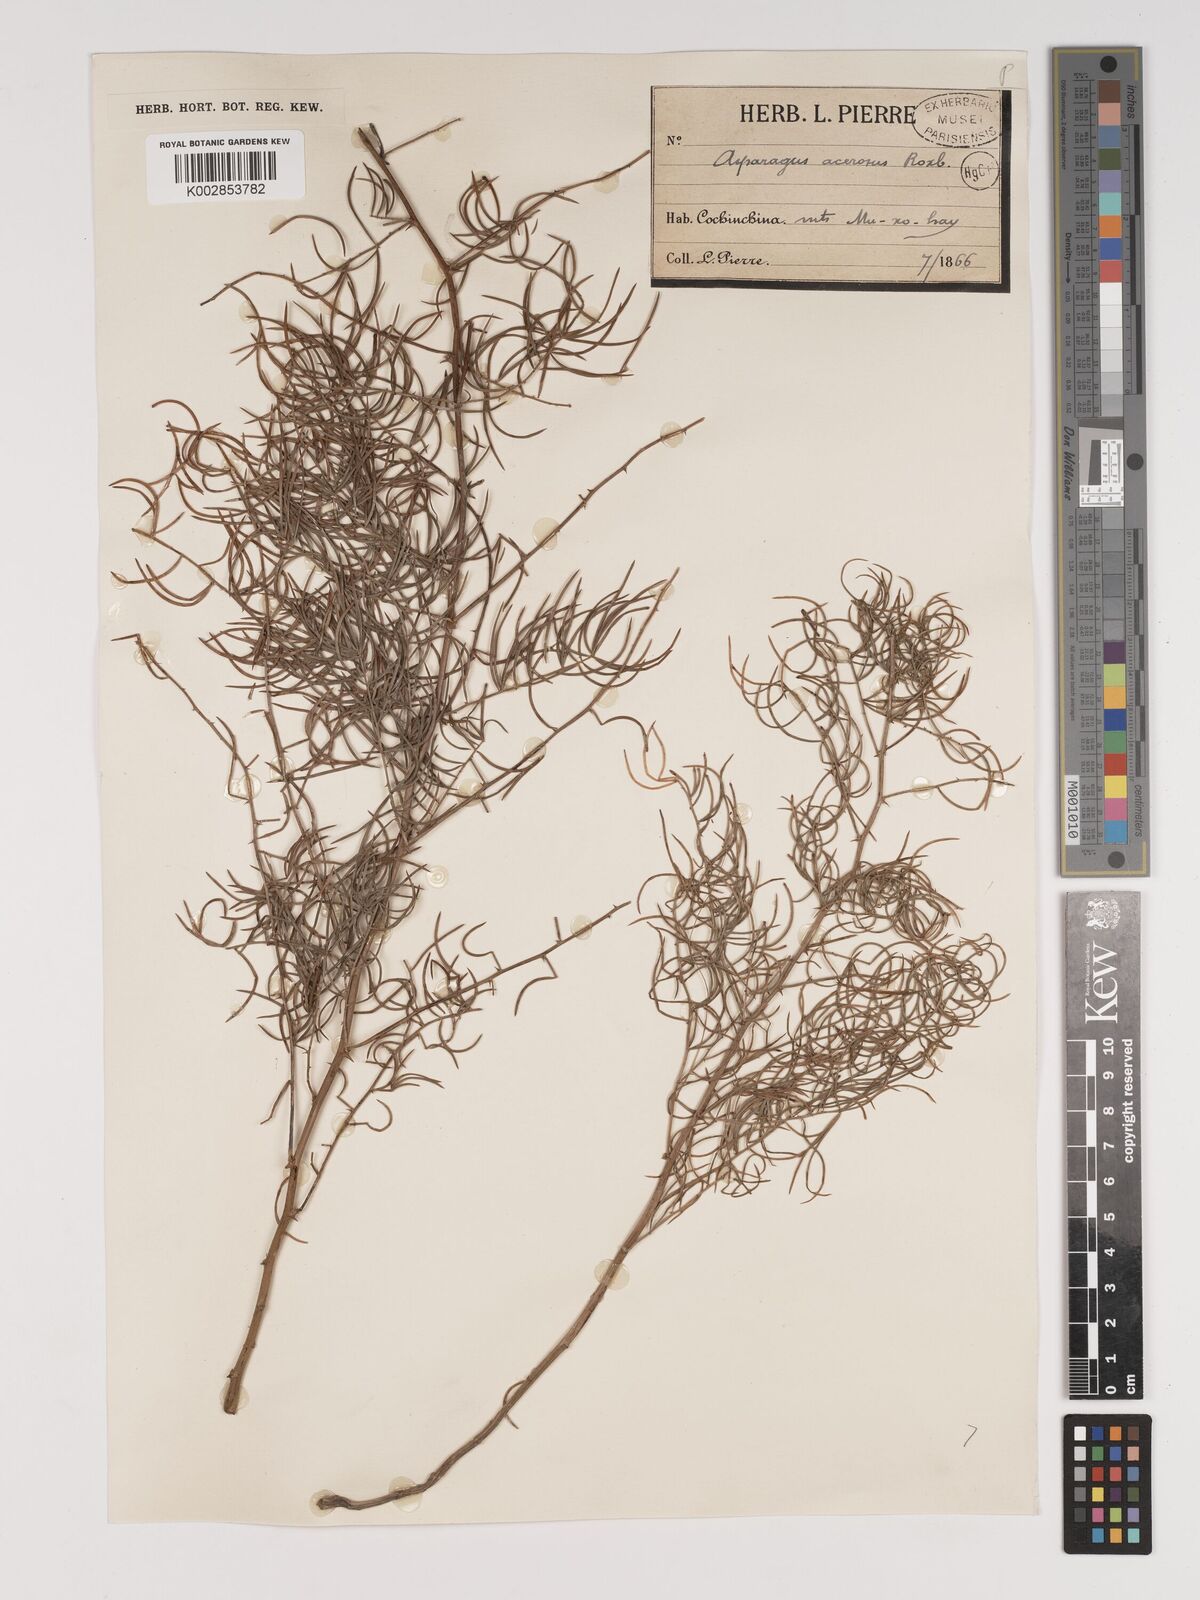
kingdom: Plantae
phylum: Tracheophyta
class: Liliopsida
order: Asparagales
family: Asparagaceae
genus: Asparagus
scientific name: Asparagus racemosus
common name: Asparagus-fern
